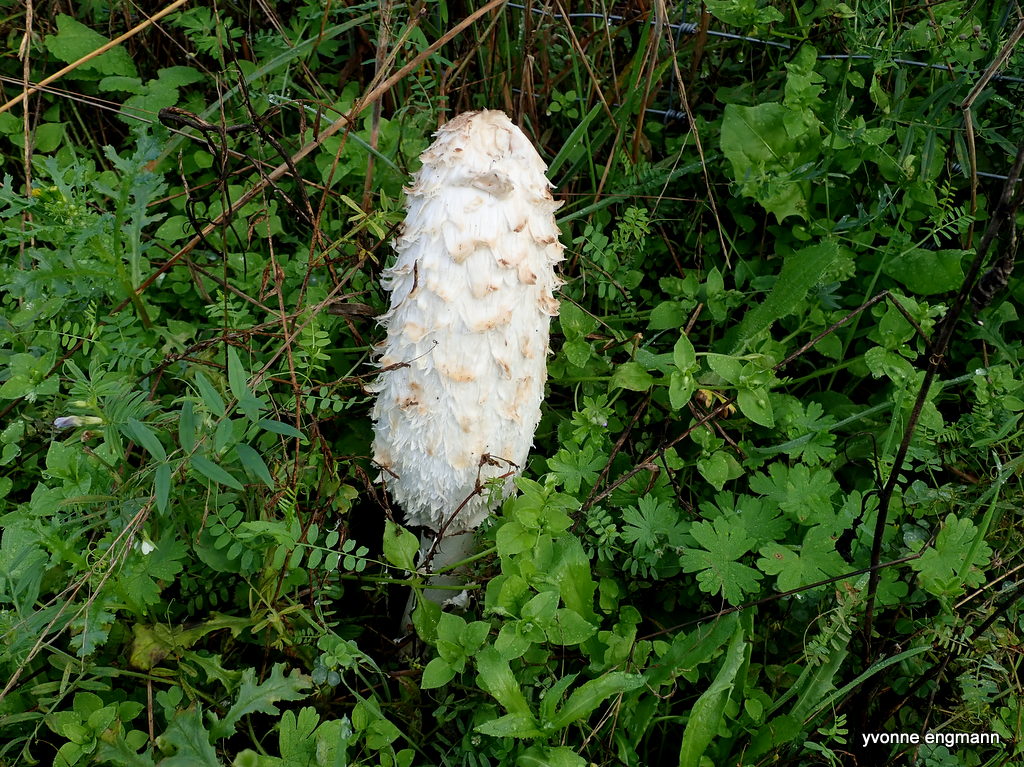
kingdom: Fungi
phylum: Basidiomycota
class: Agaricomycetes
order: Agaricales
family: Agaricaceae
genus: Coprinus
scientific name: Coprinus comatus
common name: stor parykhat
